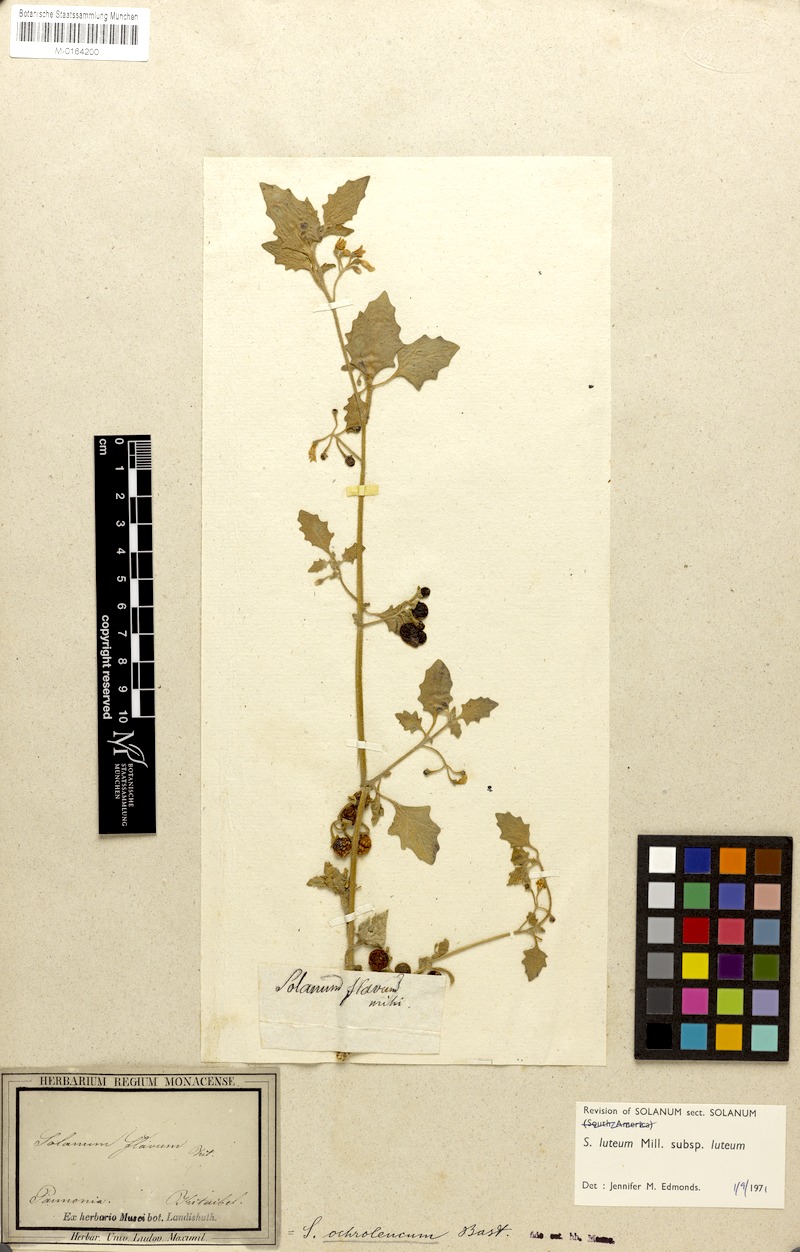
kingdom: Plantae
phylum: Tracheophyta
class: Magnoliopsida
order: Solanales
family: Solanaceae
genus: Solanum
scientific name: Solanum villosum
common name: Red nightshade
